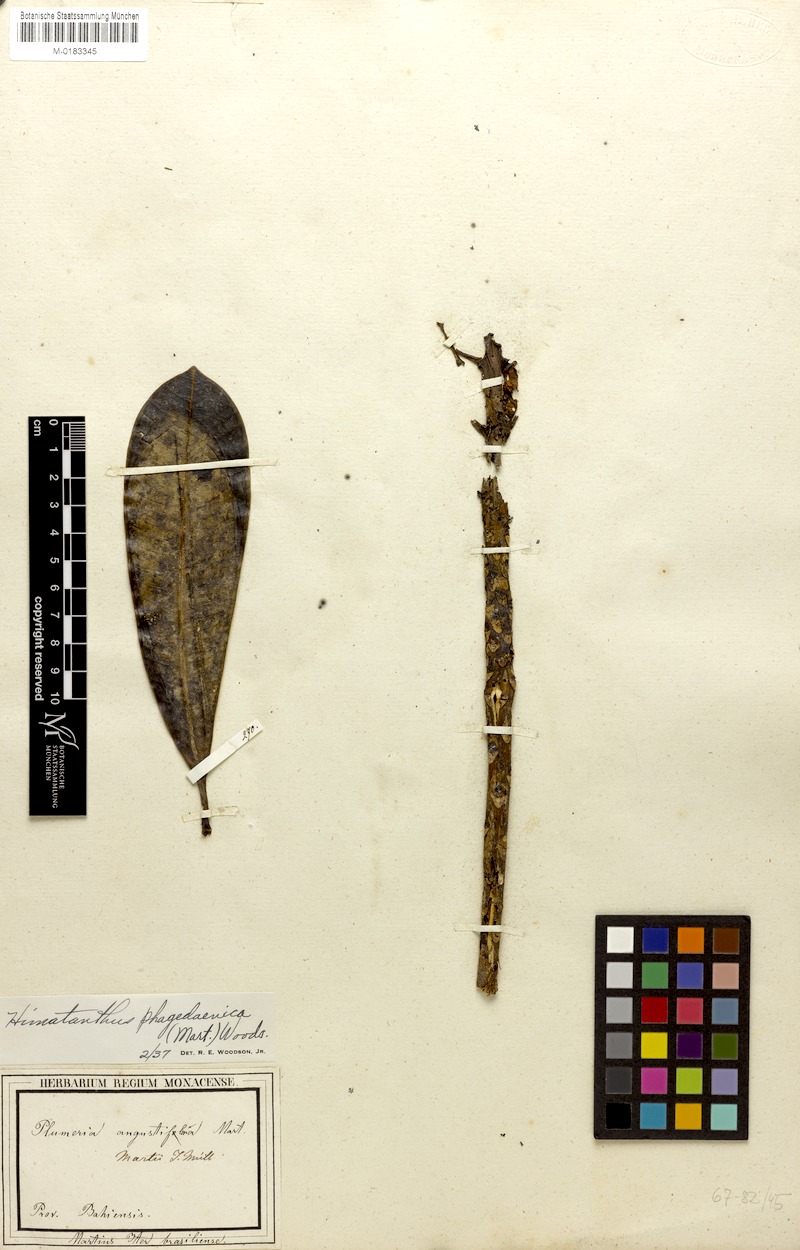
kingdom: Plantae
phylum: Tracheophyta
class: Magnoliopsida
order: Gentianales
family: Apocynaceae
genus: Himatanthus
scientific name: Himatanthus phagedaenicus
